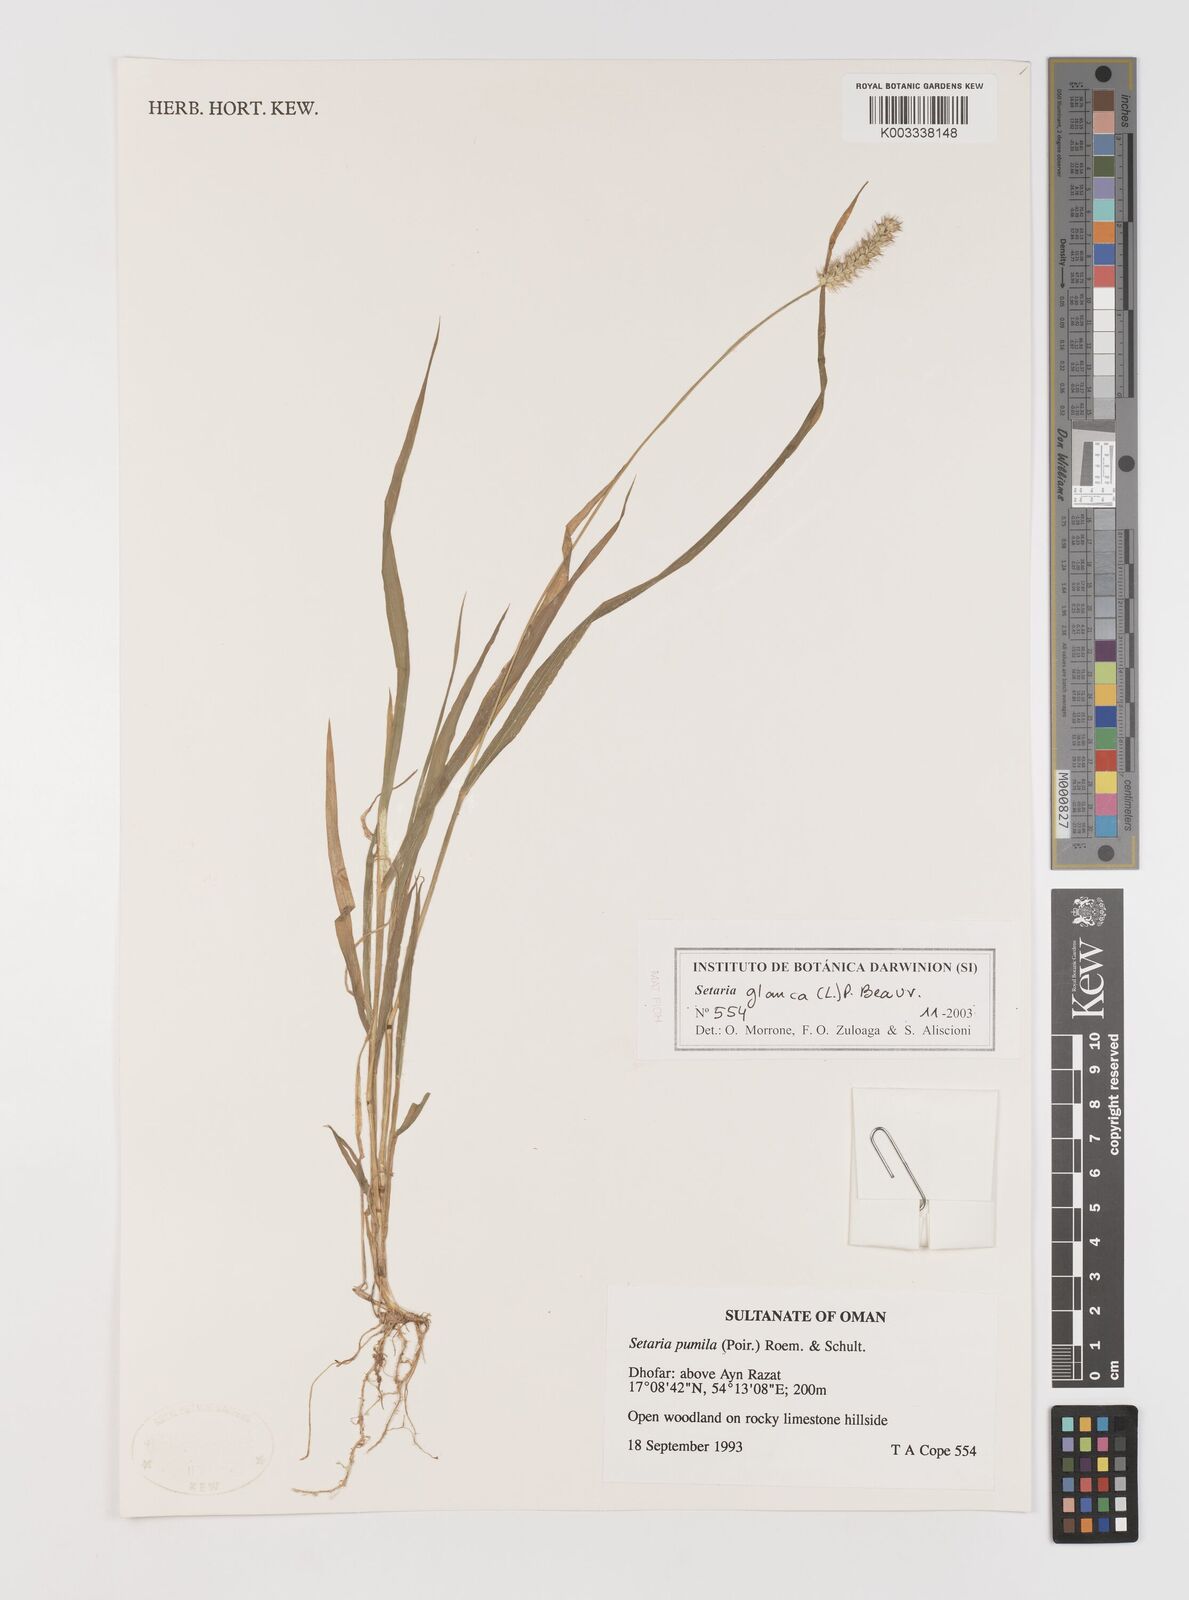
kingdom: Plantae
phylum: Tracheophyta
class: Liliopsida
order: Poales
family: Poaceae
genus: Setaria
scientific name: Setaria pumila
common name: Yellow bristle-grass
